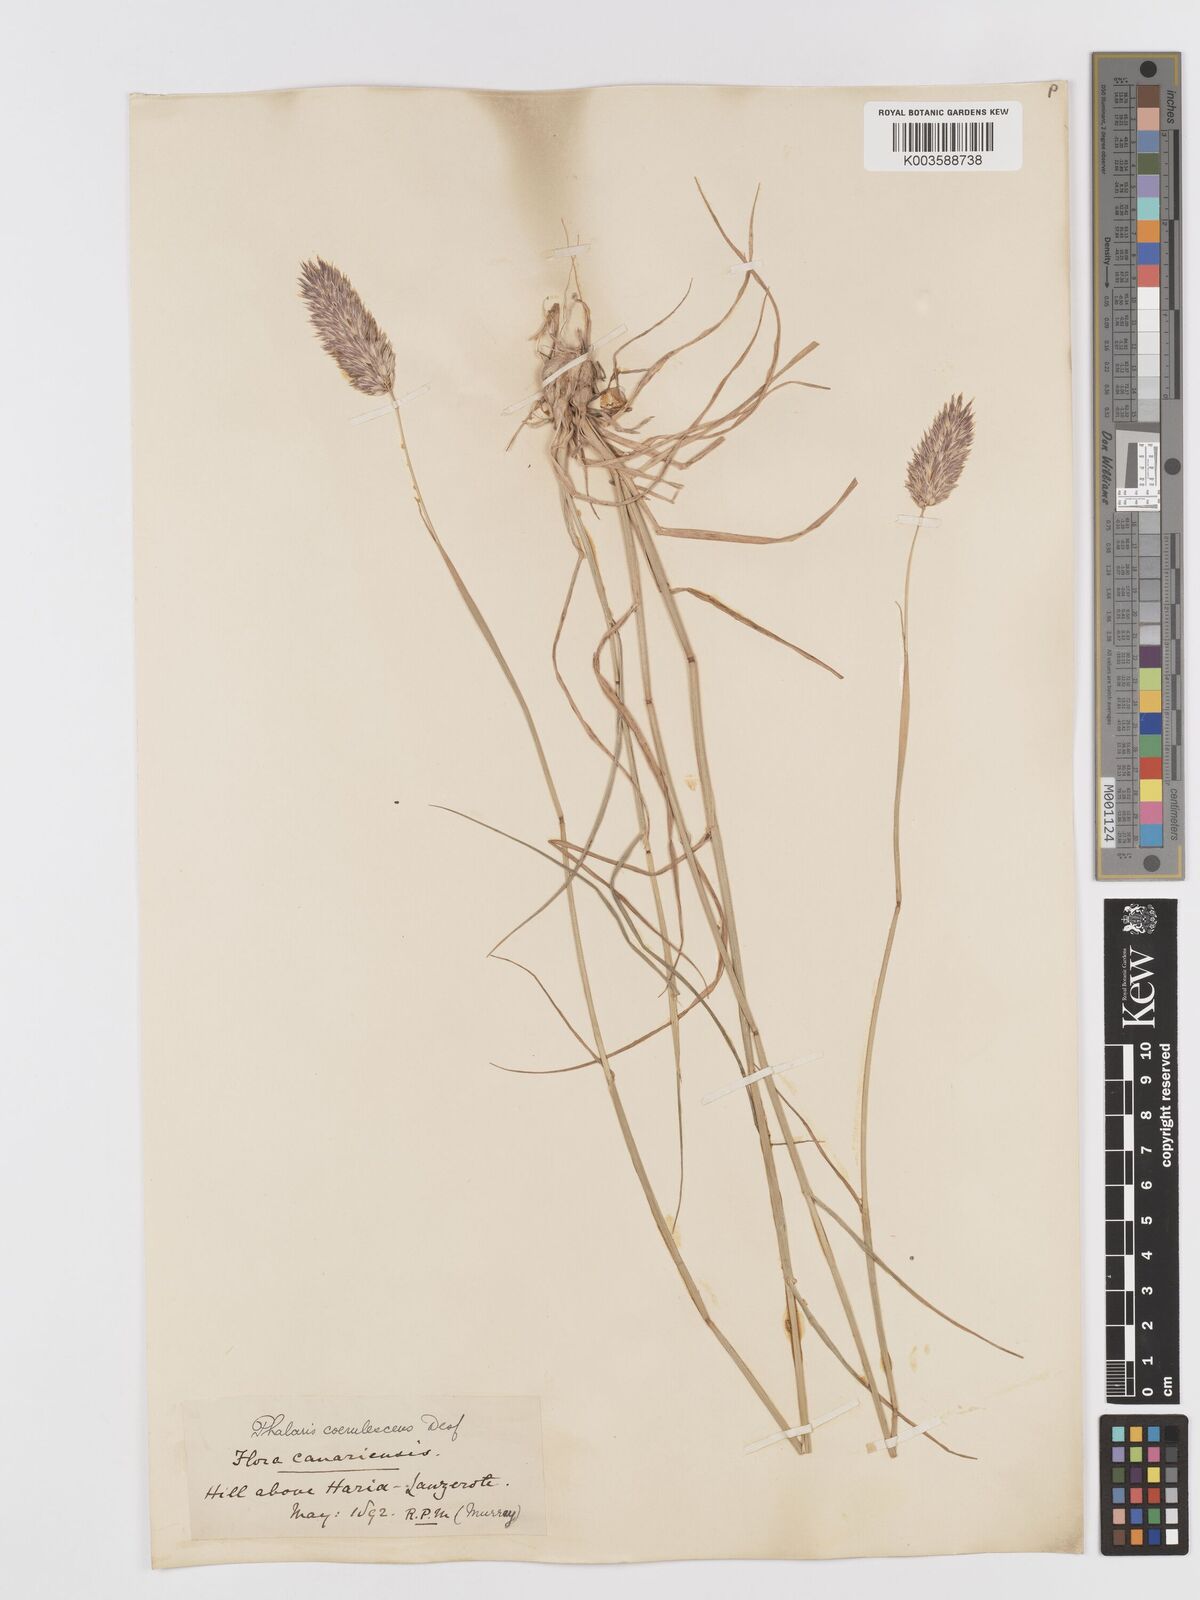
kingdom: Plantae
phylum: Tracheophyta
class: Liliopsida
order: Poales
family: Poaceae
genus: Phalaris
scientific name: Phalaris coerulescens
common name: Sunolgrass
